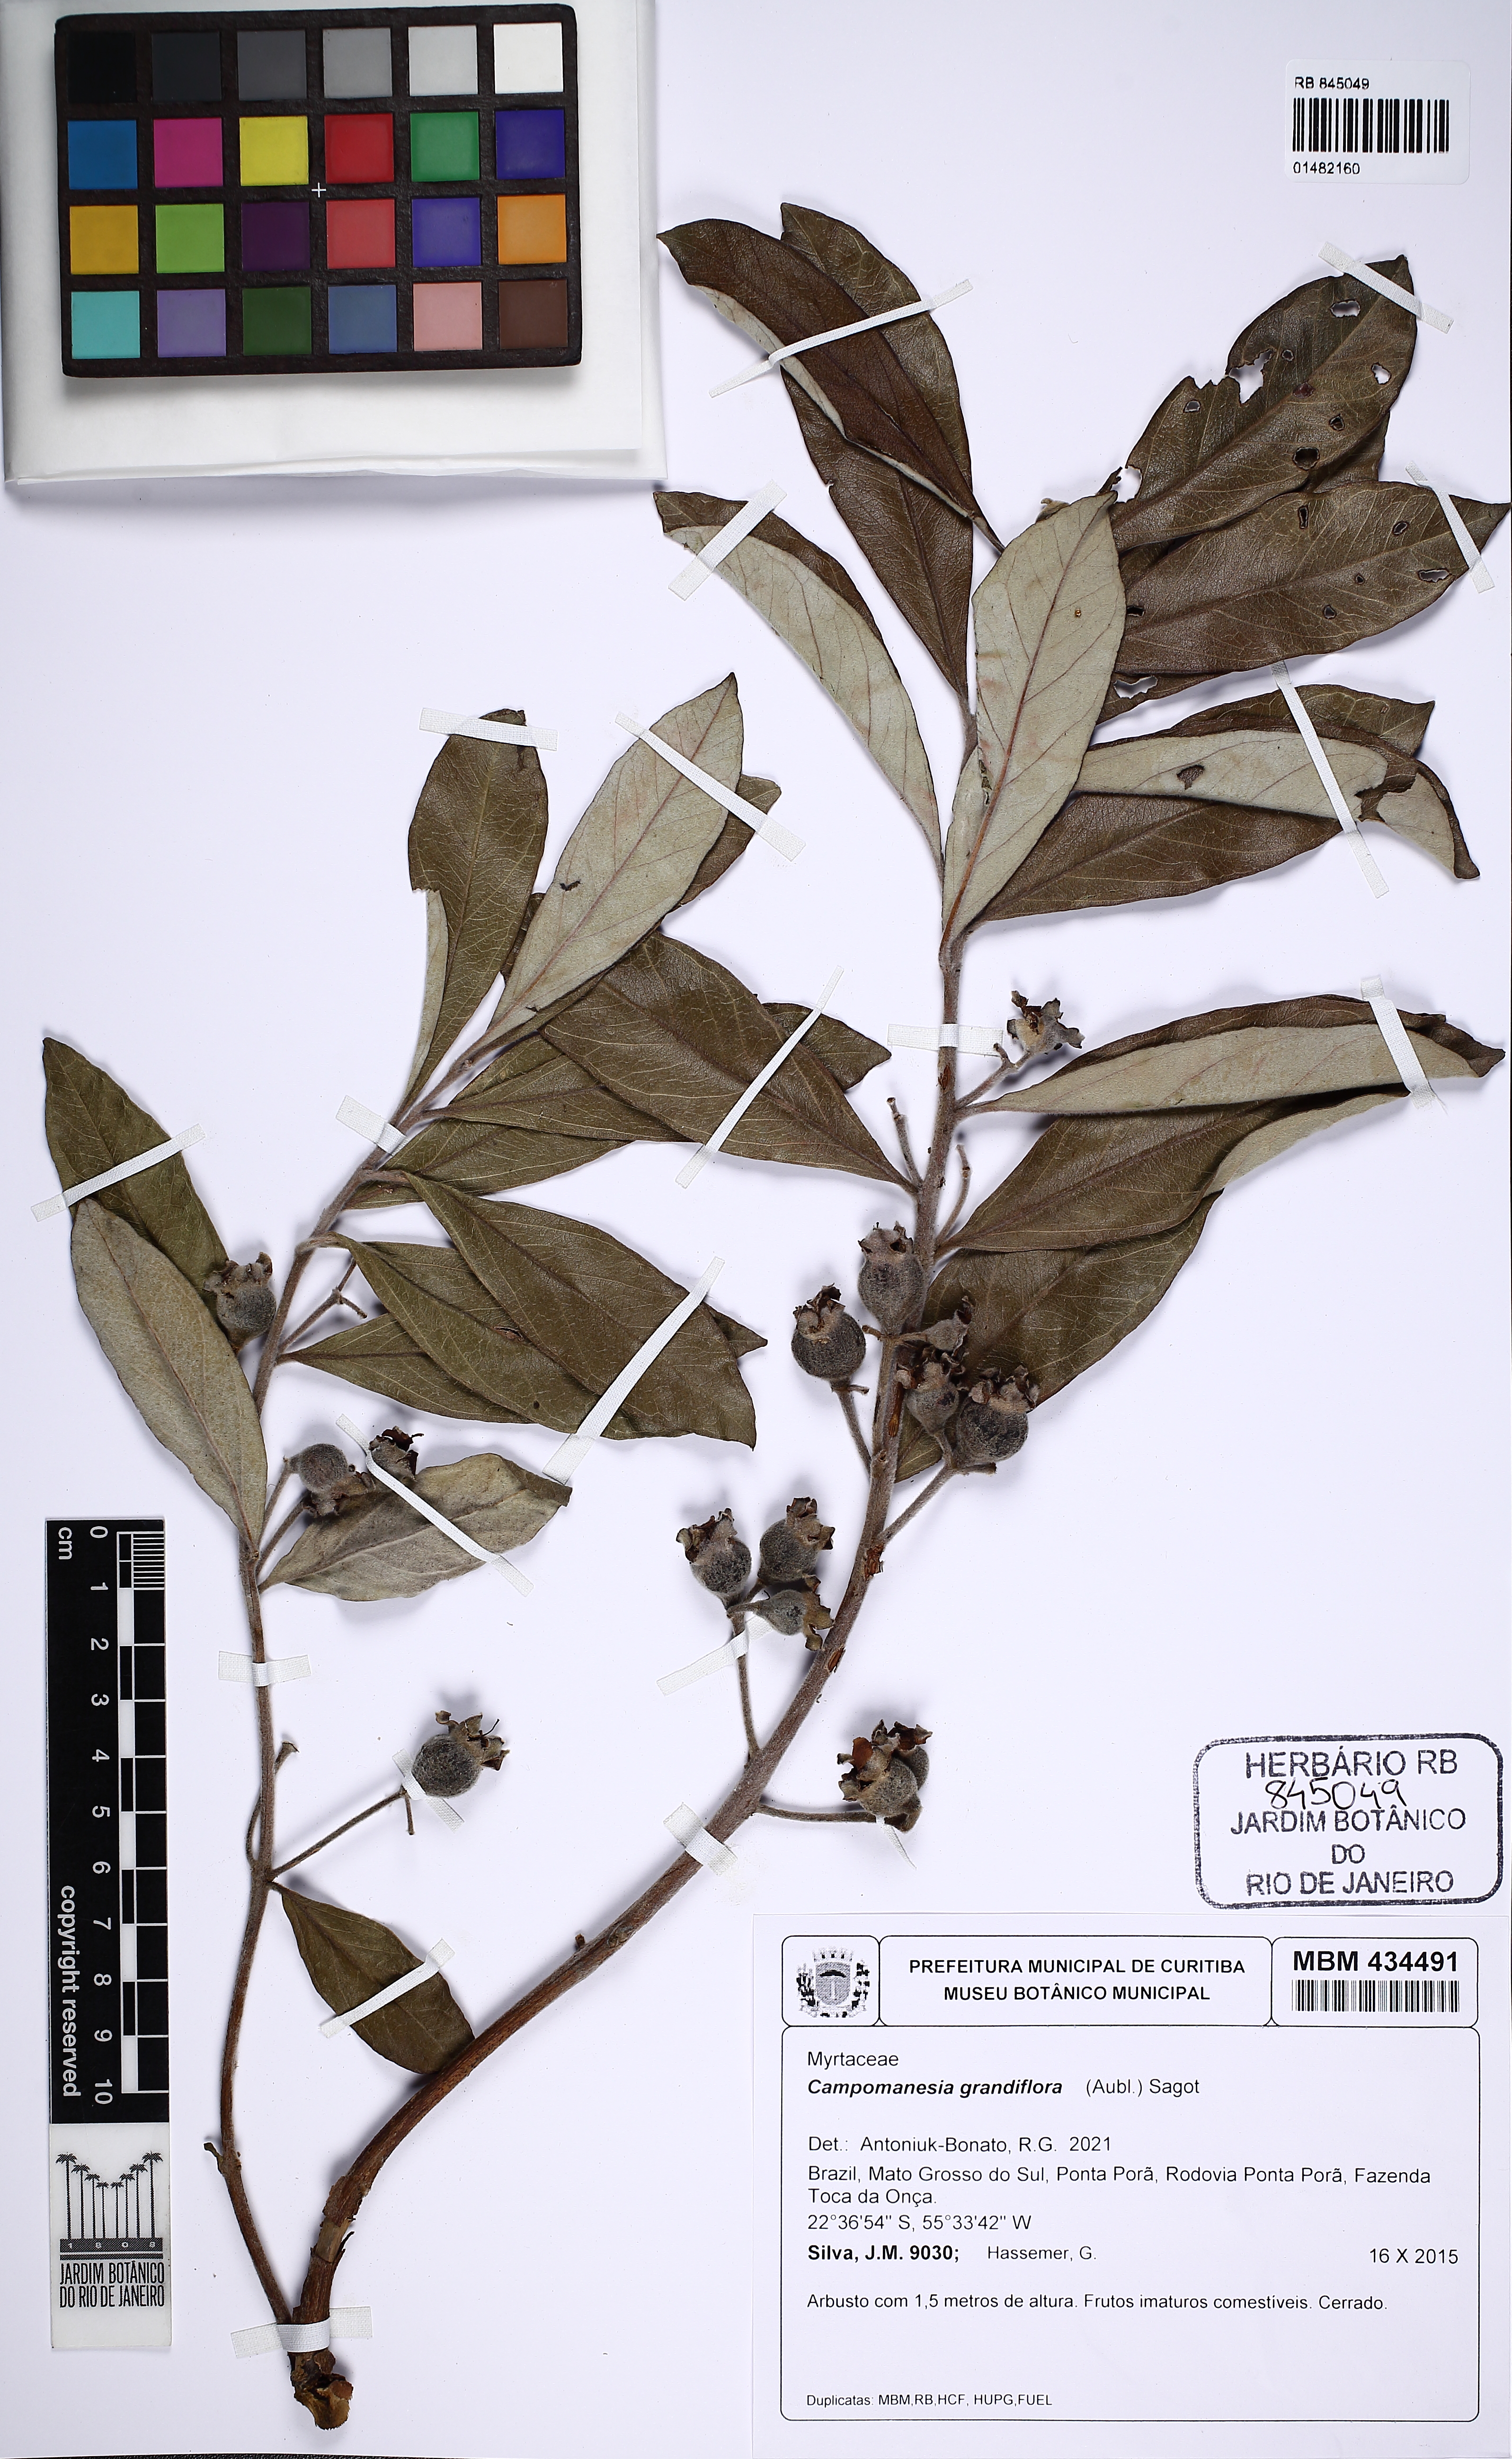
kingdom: Plantae
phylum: Tracheophyta
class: Magnoliopsida
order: Myrtales
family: Myrtaceae
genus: Campomanesia
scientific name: Campomanesia grandiflora
